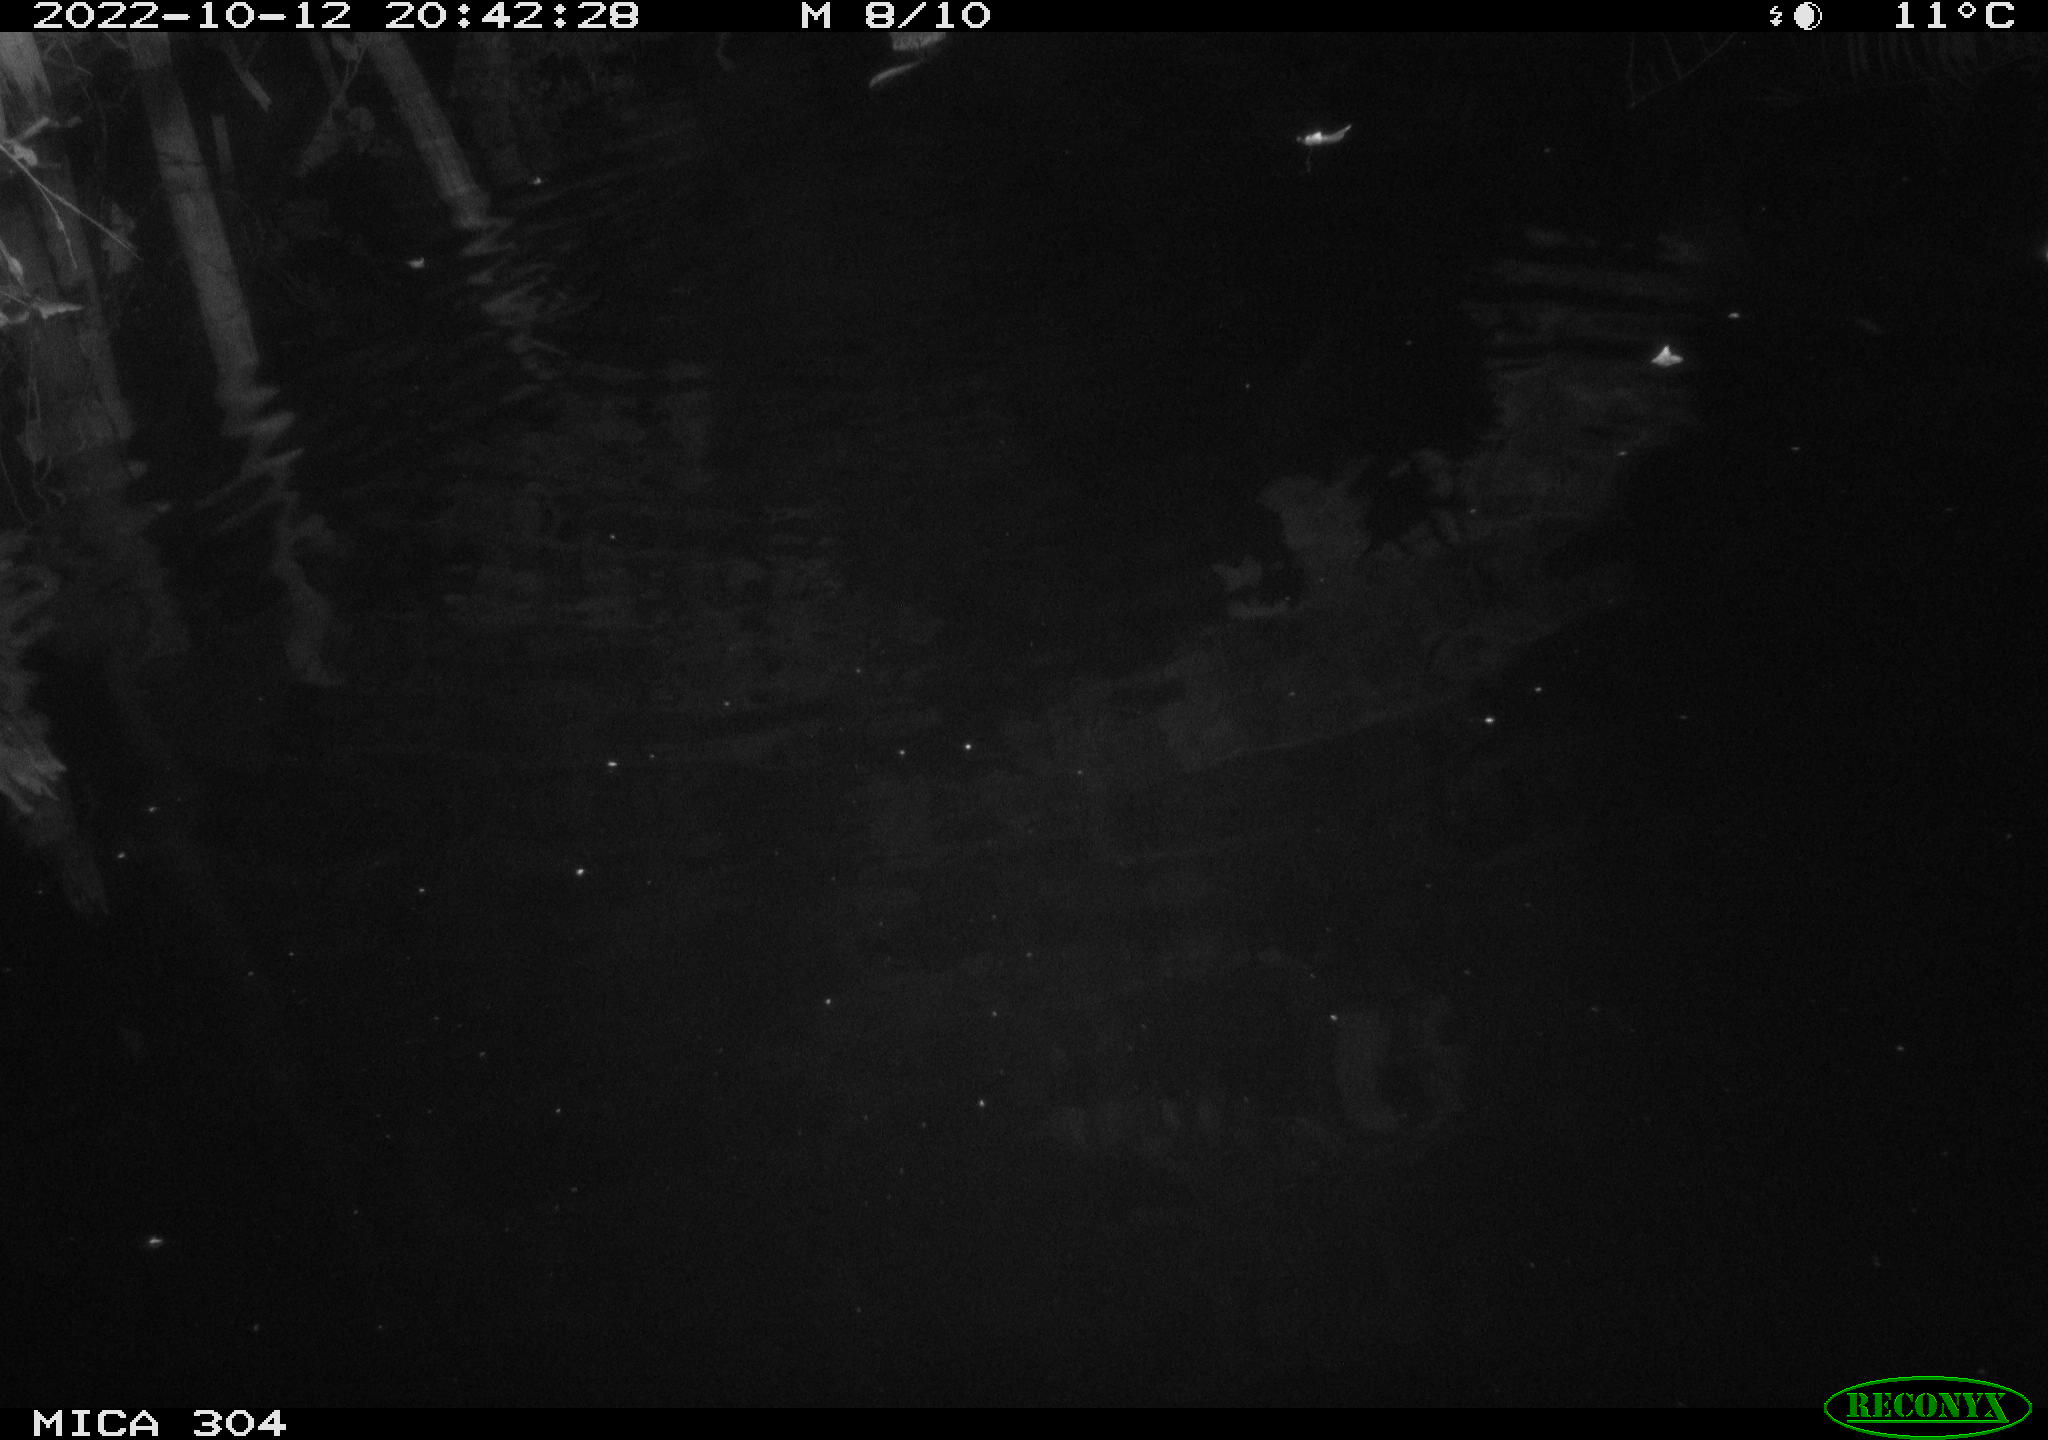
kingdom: Animalia
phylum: Chordata
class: Mammalia
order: Rodentia
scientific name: Rodentia
